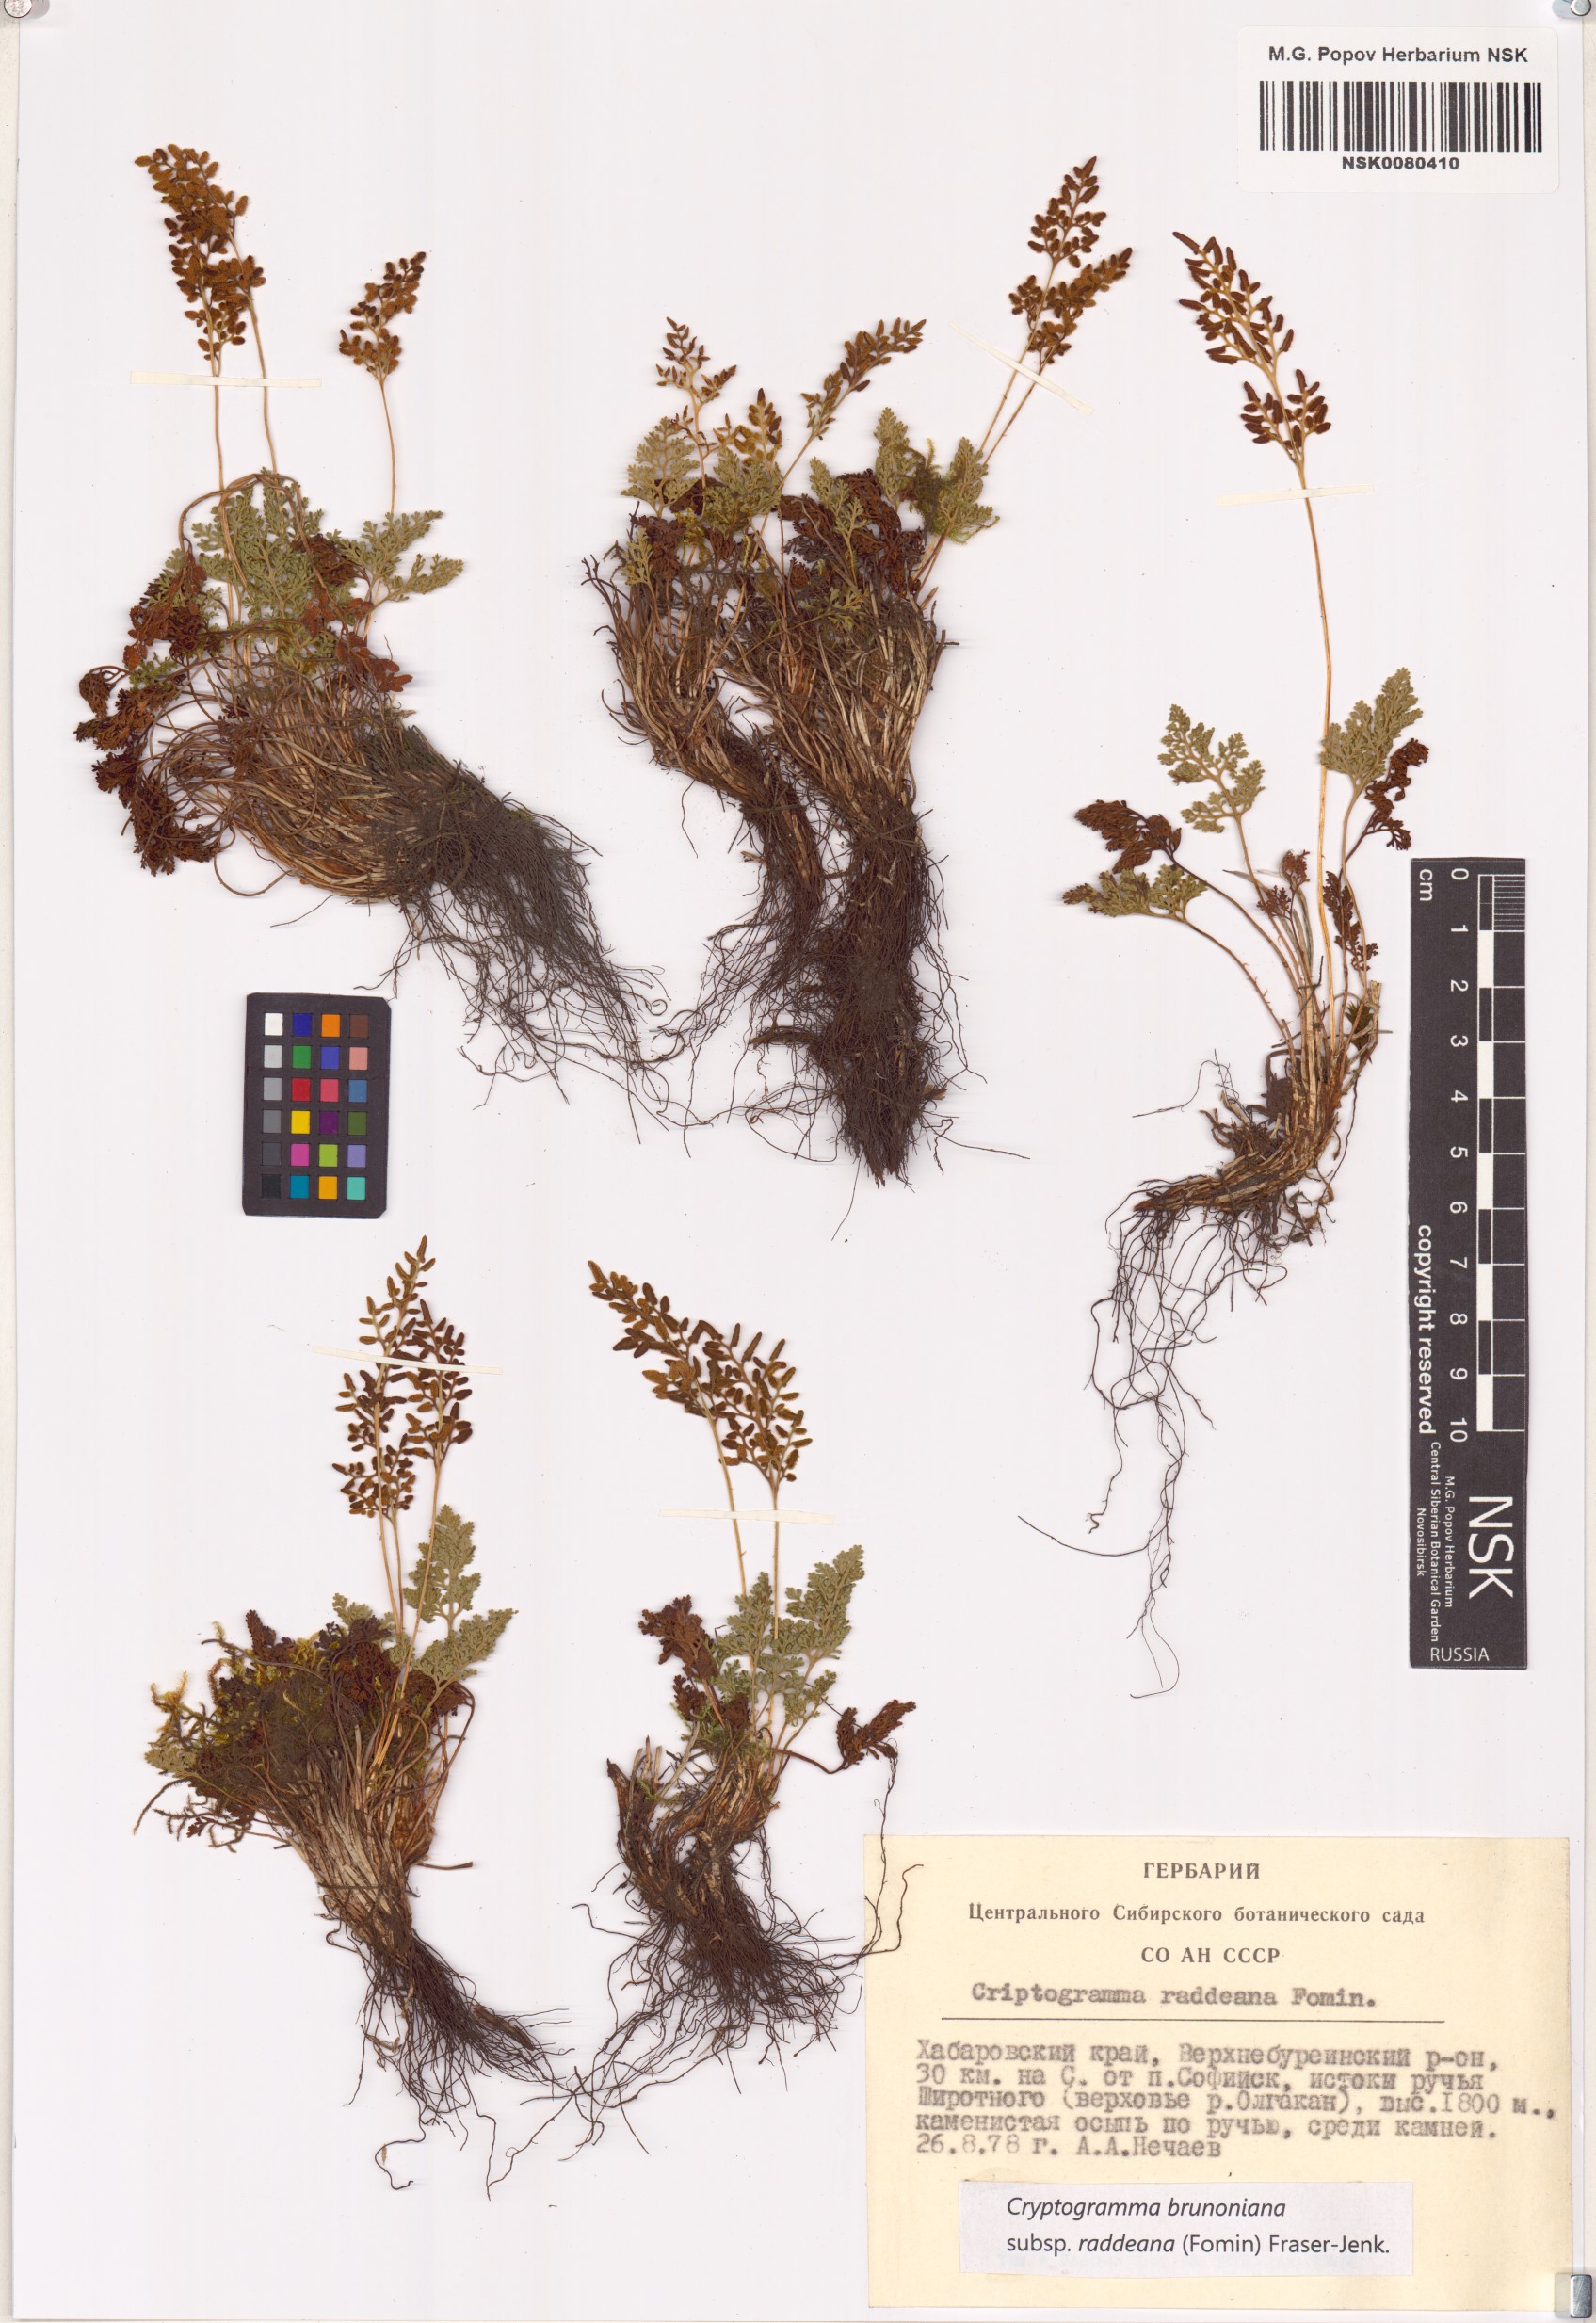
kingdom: Plantae
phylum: Tracheophyta
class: Polypodiopsida
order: Polypodiales
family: Pteridaceae
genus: Cryptogramma
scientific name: Cryptogramma brunoniana
